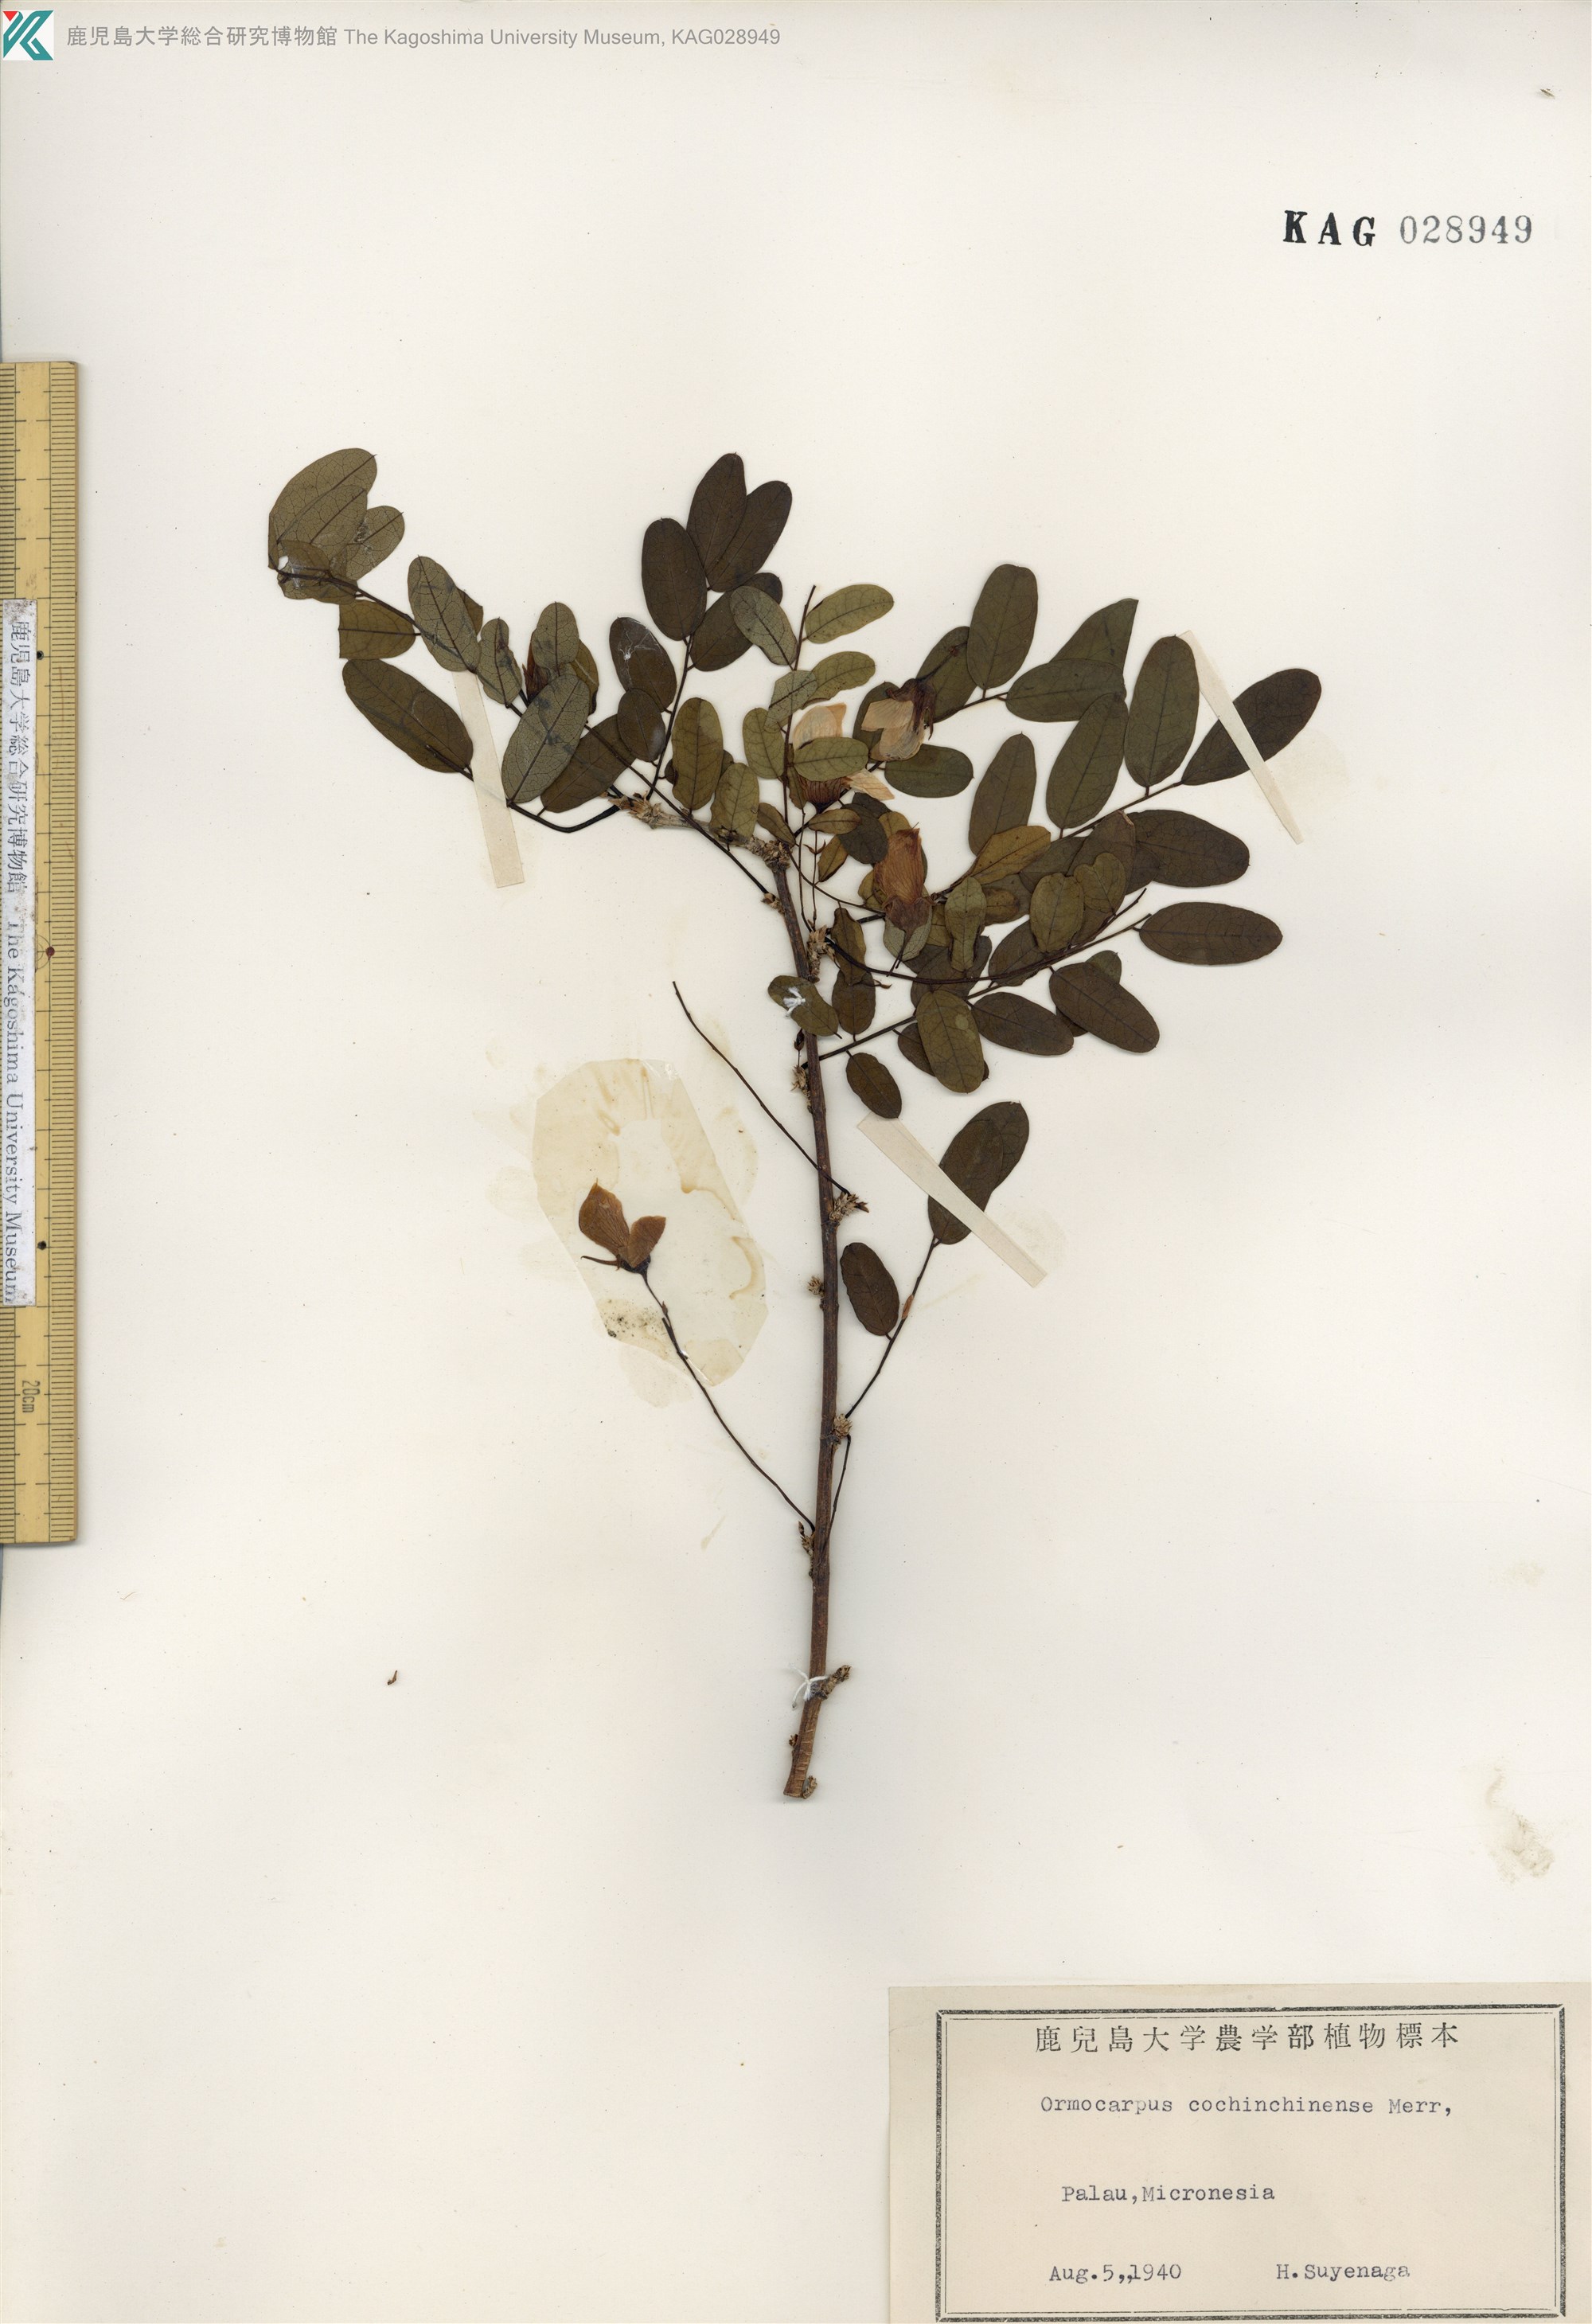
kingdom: Plantae
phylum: Tracheophyta
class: Magnoliopsida
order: Fabales
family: Fabaceae
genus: Ormocarpum
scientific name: Ormocarpum cochinchinense
